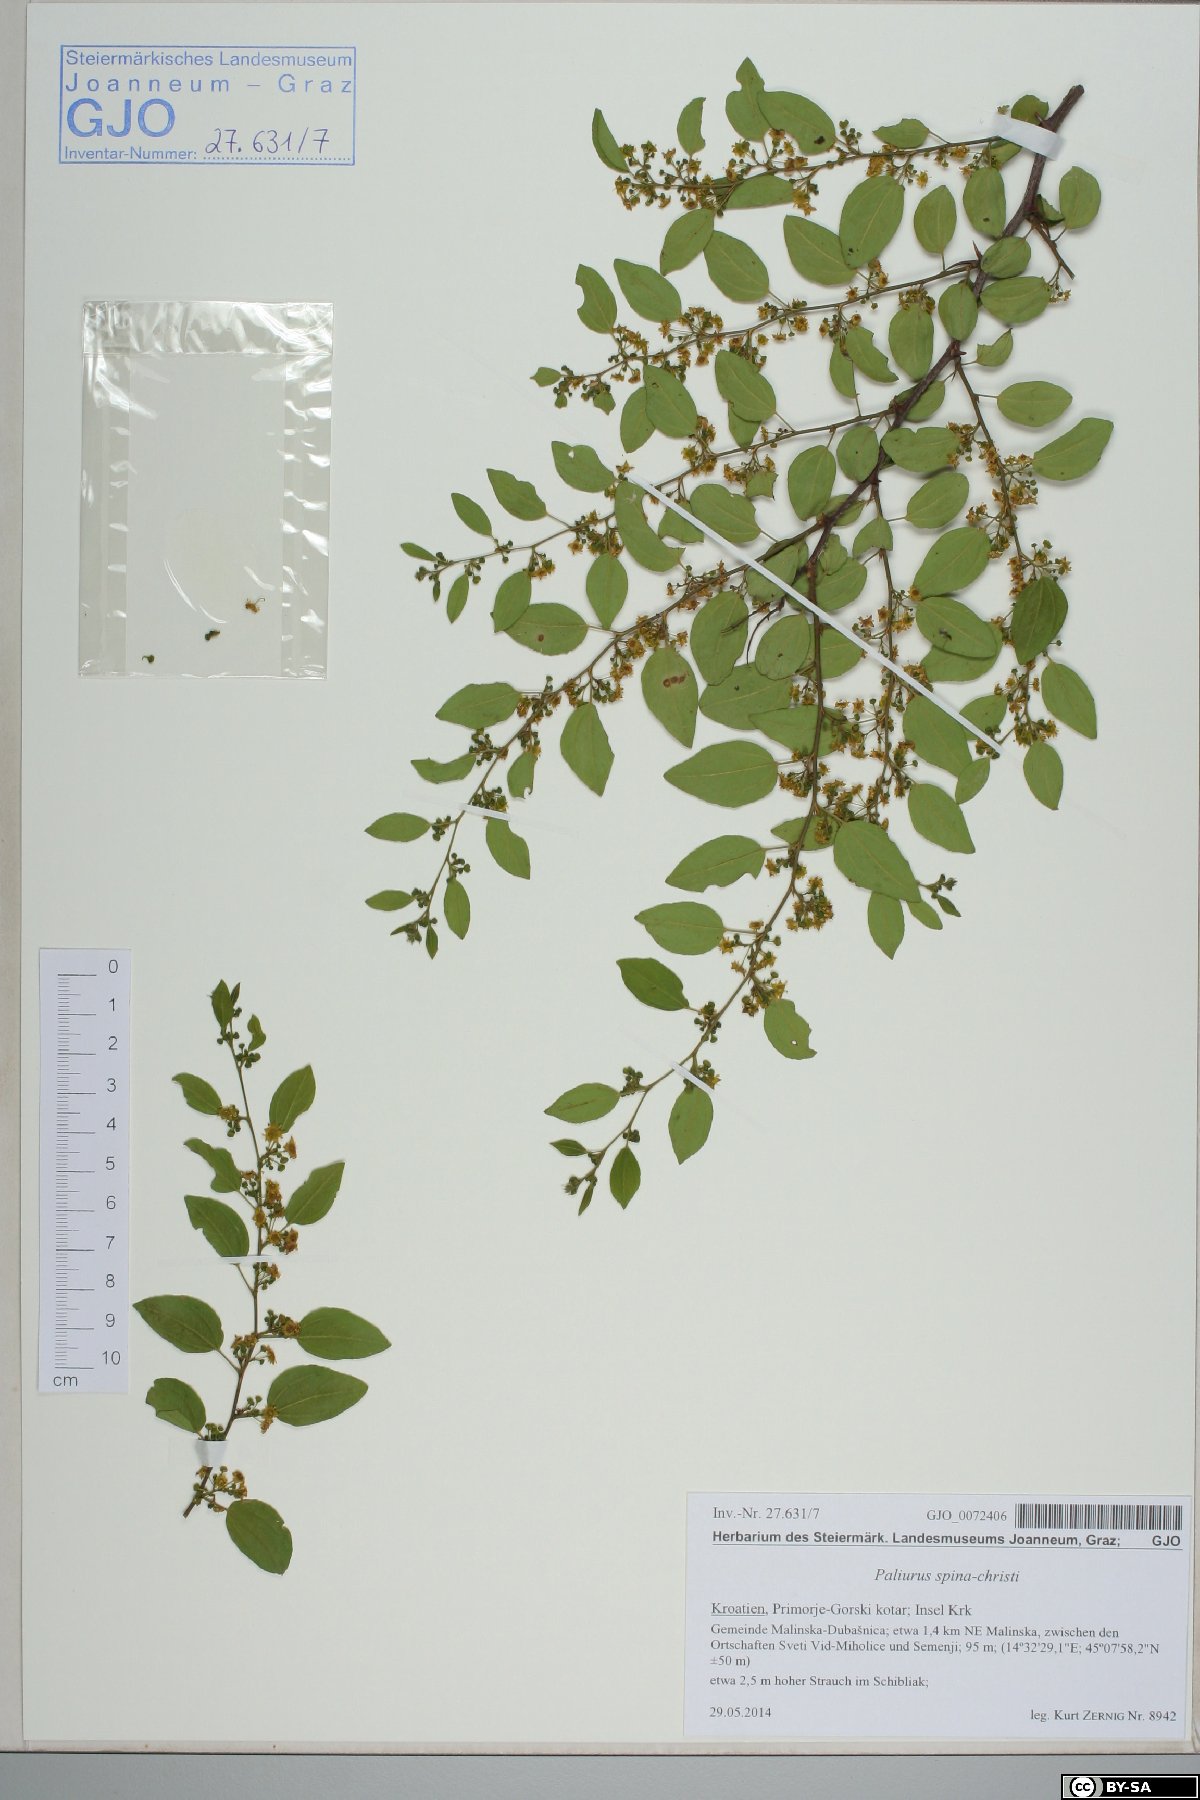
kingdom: Plantae
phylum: Tracheophyta
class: Magnoliopsida
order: Rosales
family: Rhamnaceae
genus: Paliurus
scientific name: Paliurus spina-christi
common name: Jeruselem thorn
